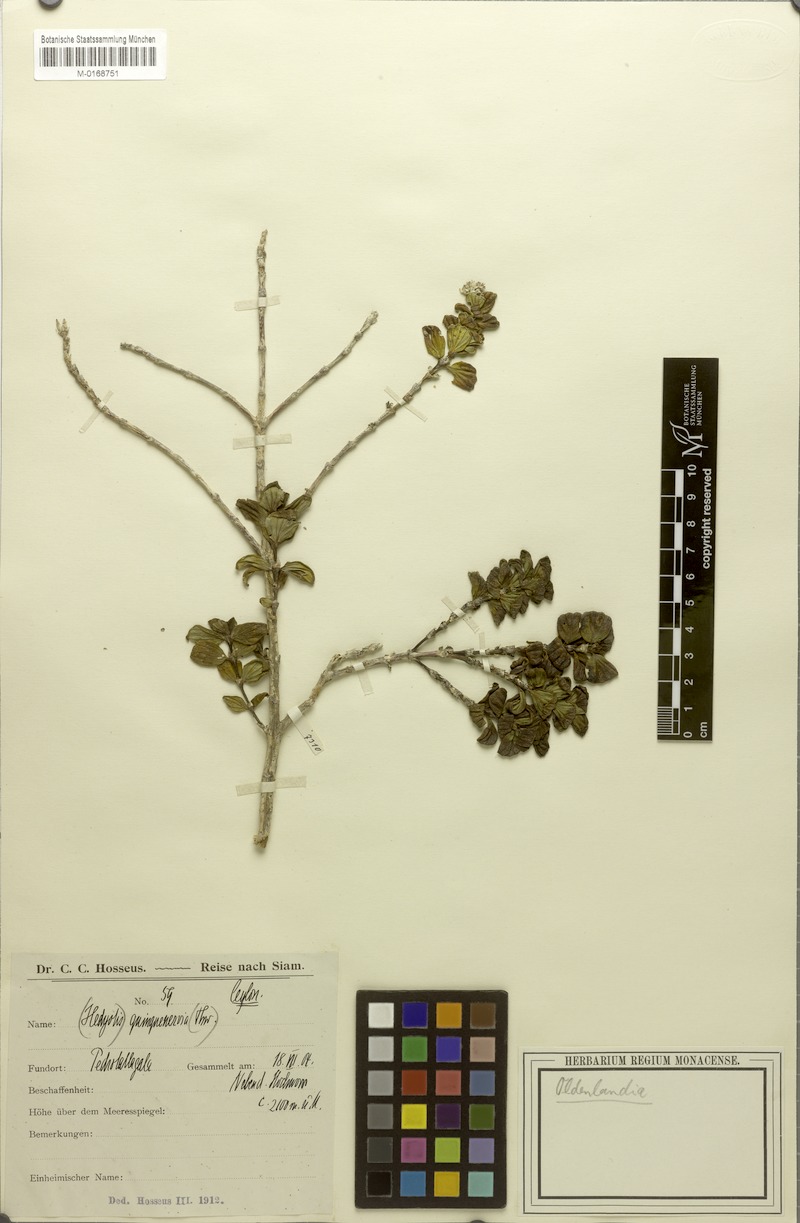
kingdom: Plantae
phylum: Tracheophyta
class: Magnoliopsida
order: Gentianales
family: Rubiaceae
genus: Hedyotis
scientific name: Hedyotis quinquinervis
